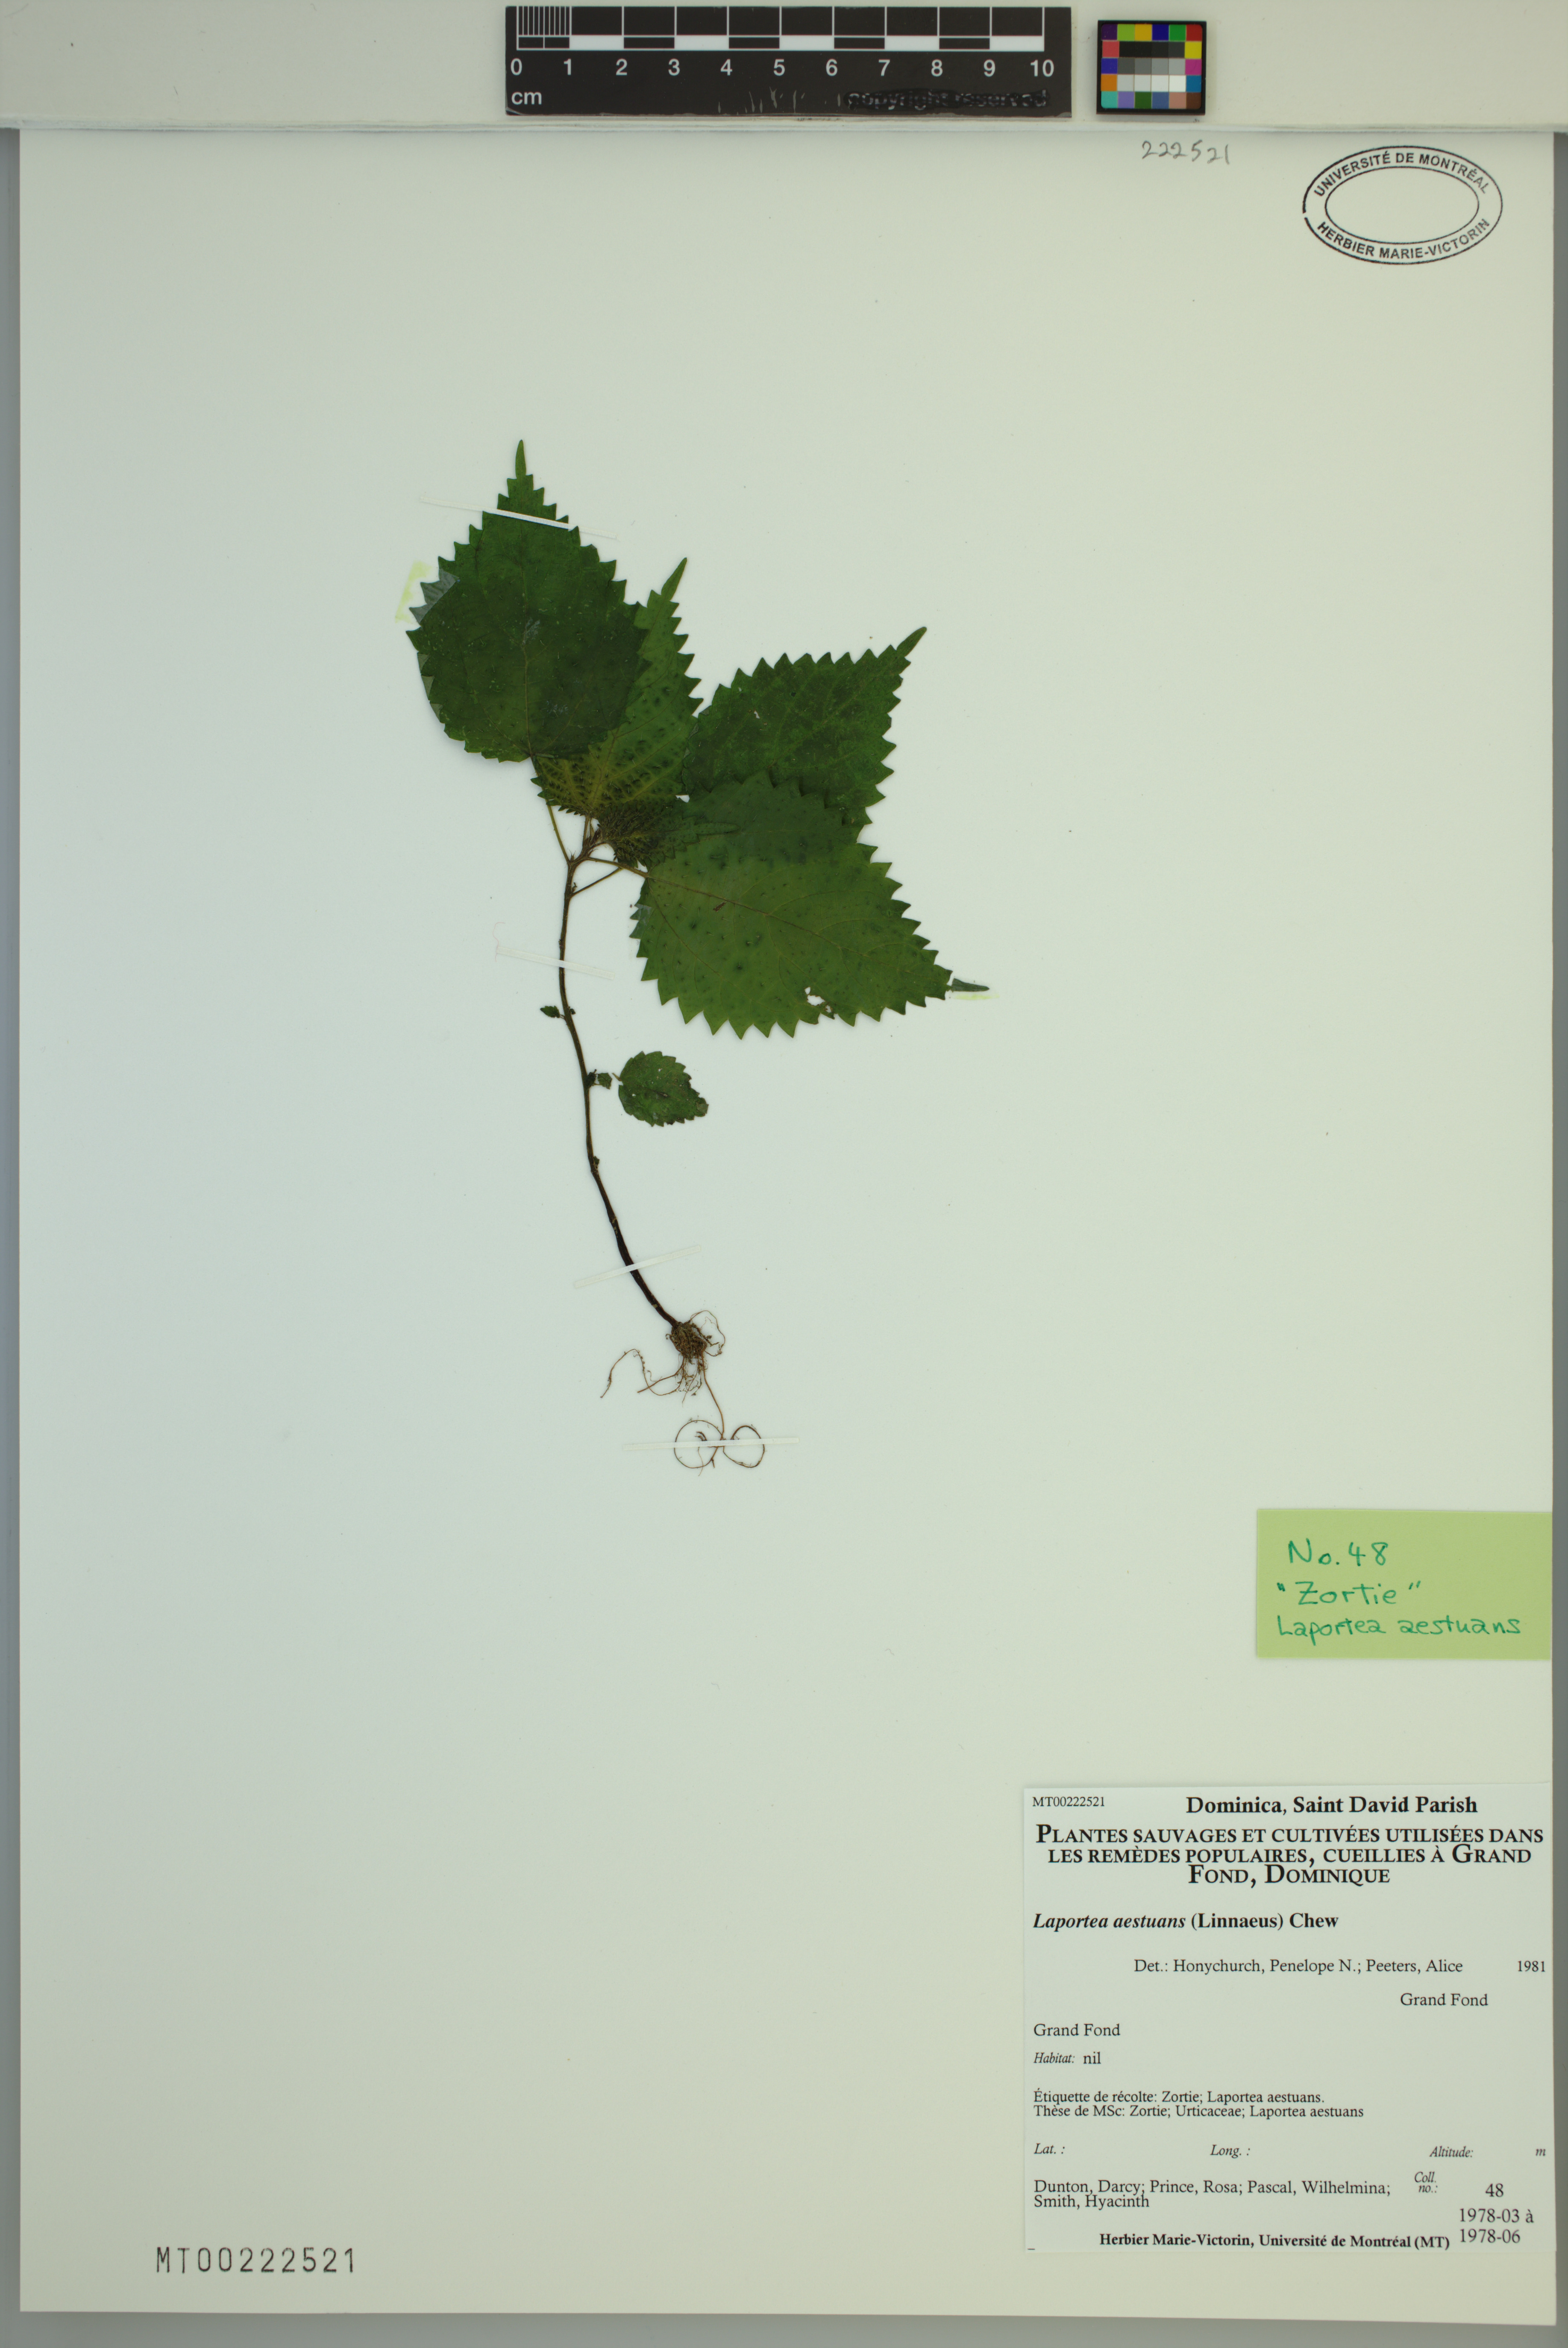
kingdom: Plantae
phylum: Tracheophyta
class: Magnoliopsida
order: Rosales
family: Urticaceae
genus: Laportea
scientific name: Laportea aestuans
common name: West indian woodnettle
